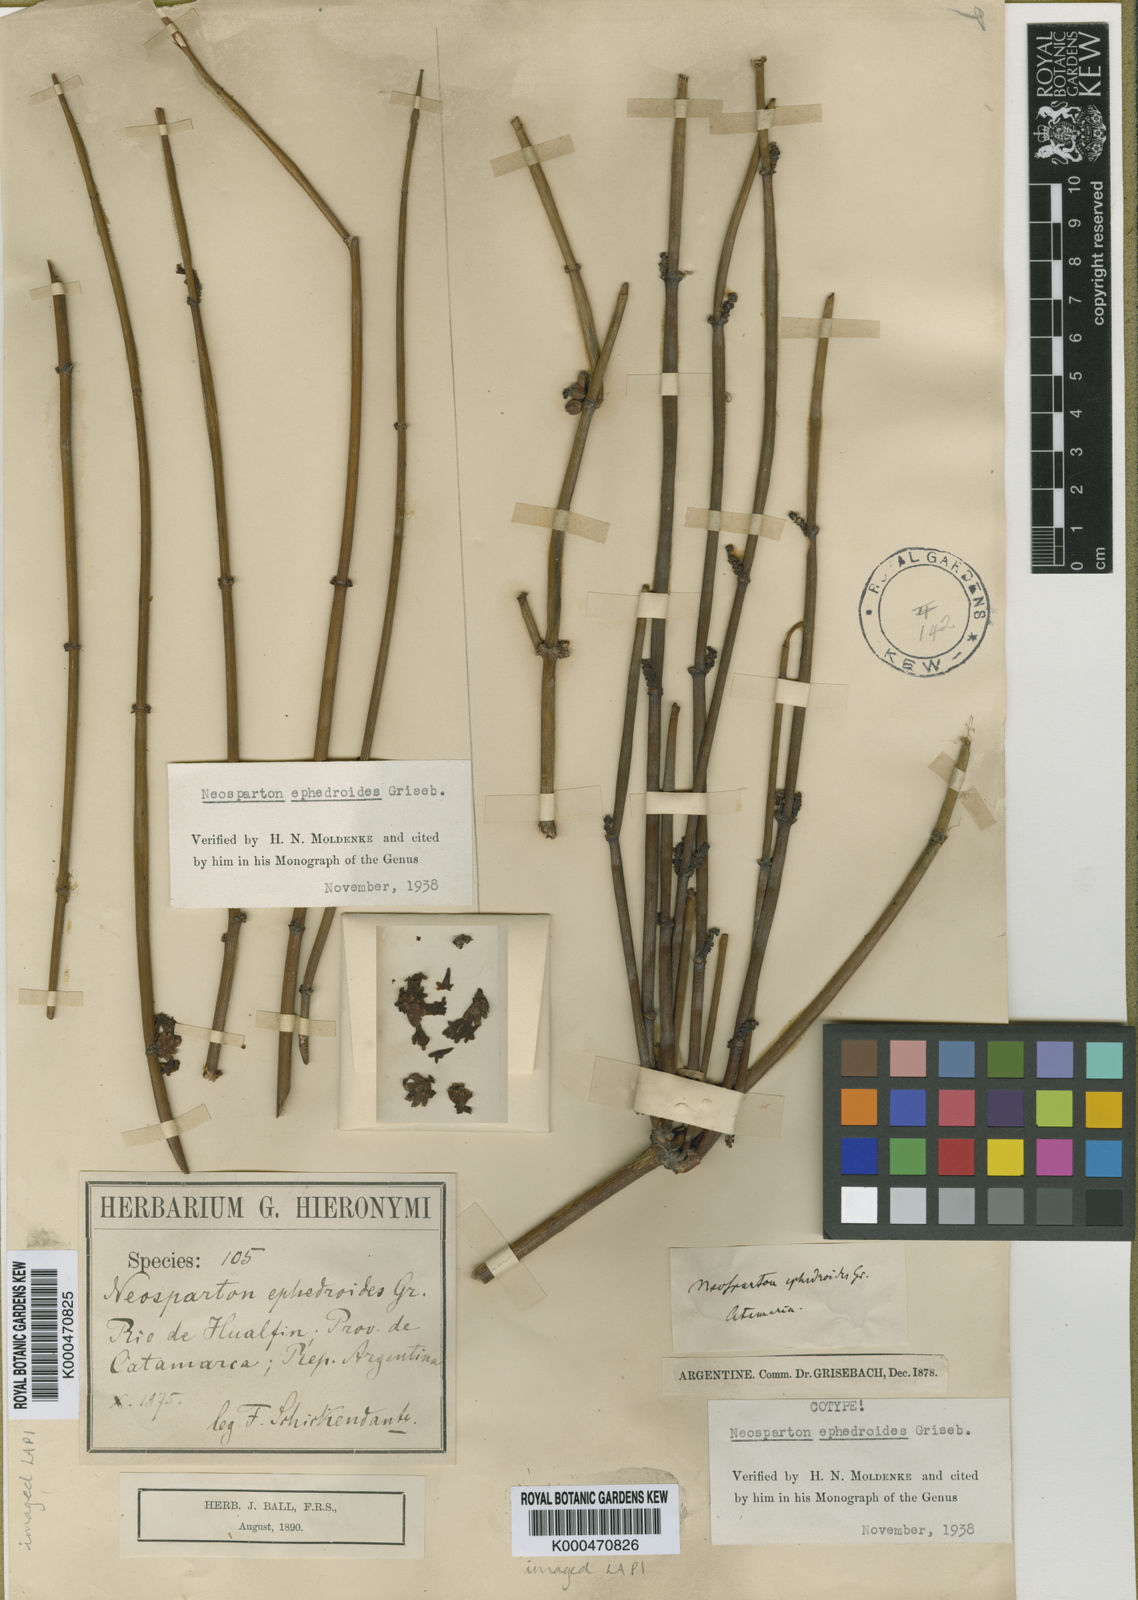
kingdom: Plantae
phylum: Tracheophyta
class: Magnoliopsida
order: Lamiales
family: Verbenaceae
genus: Neosparton
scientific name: Neosparton ephedroides
